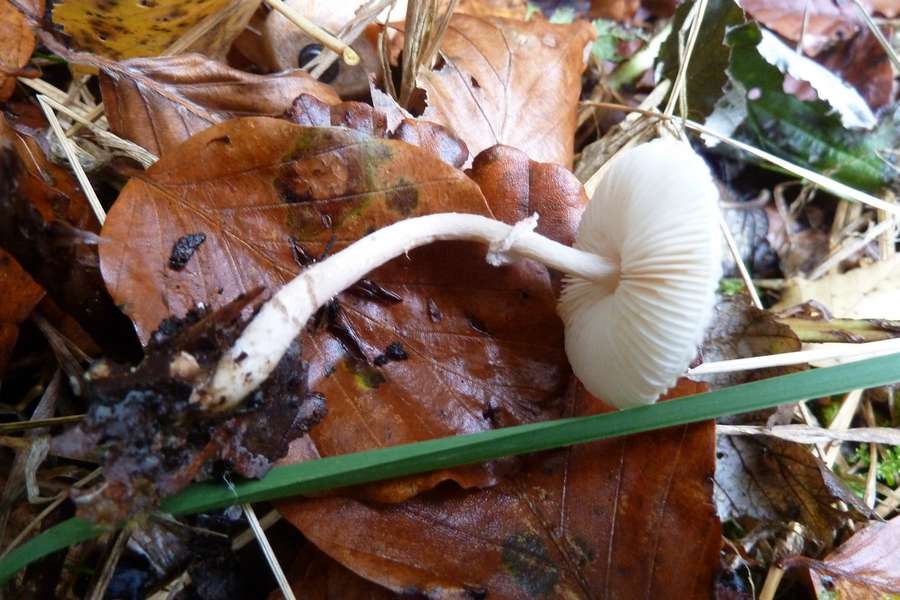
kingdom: Fungi
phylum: Basidiomycota
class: Agaricomycetes
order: Agaricales
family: Agaricaceae
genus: Lepiota
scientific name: Lepiota felina
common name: sortskællet parasolhat
